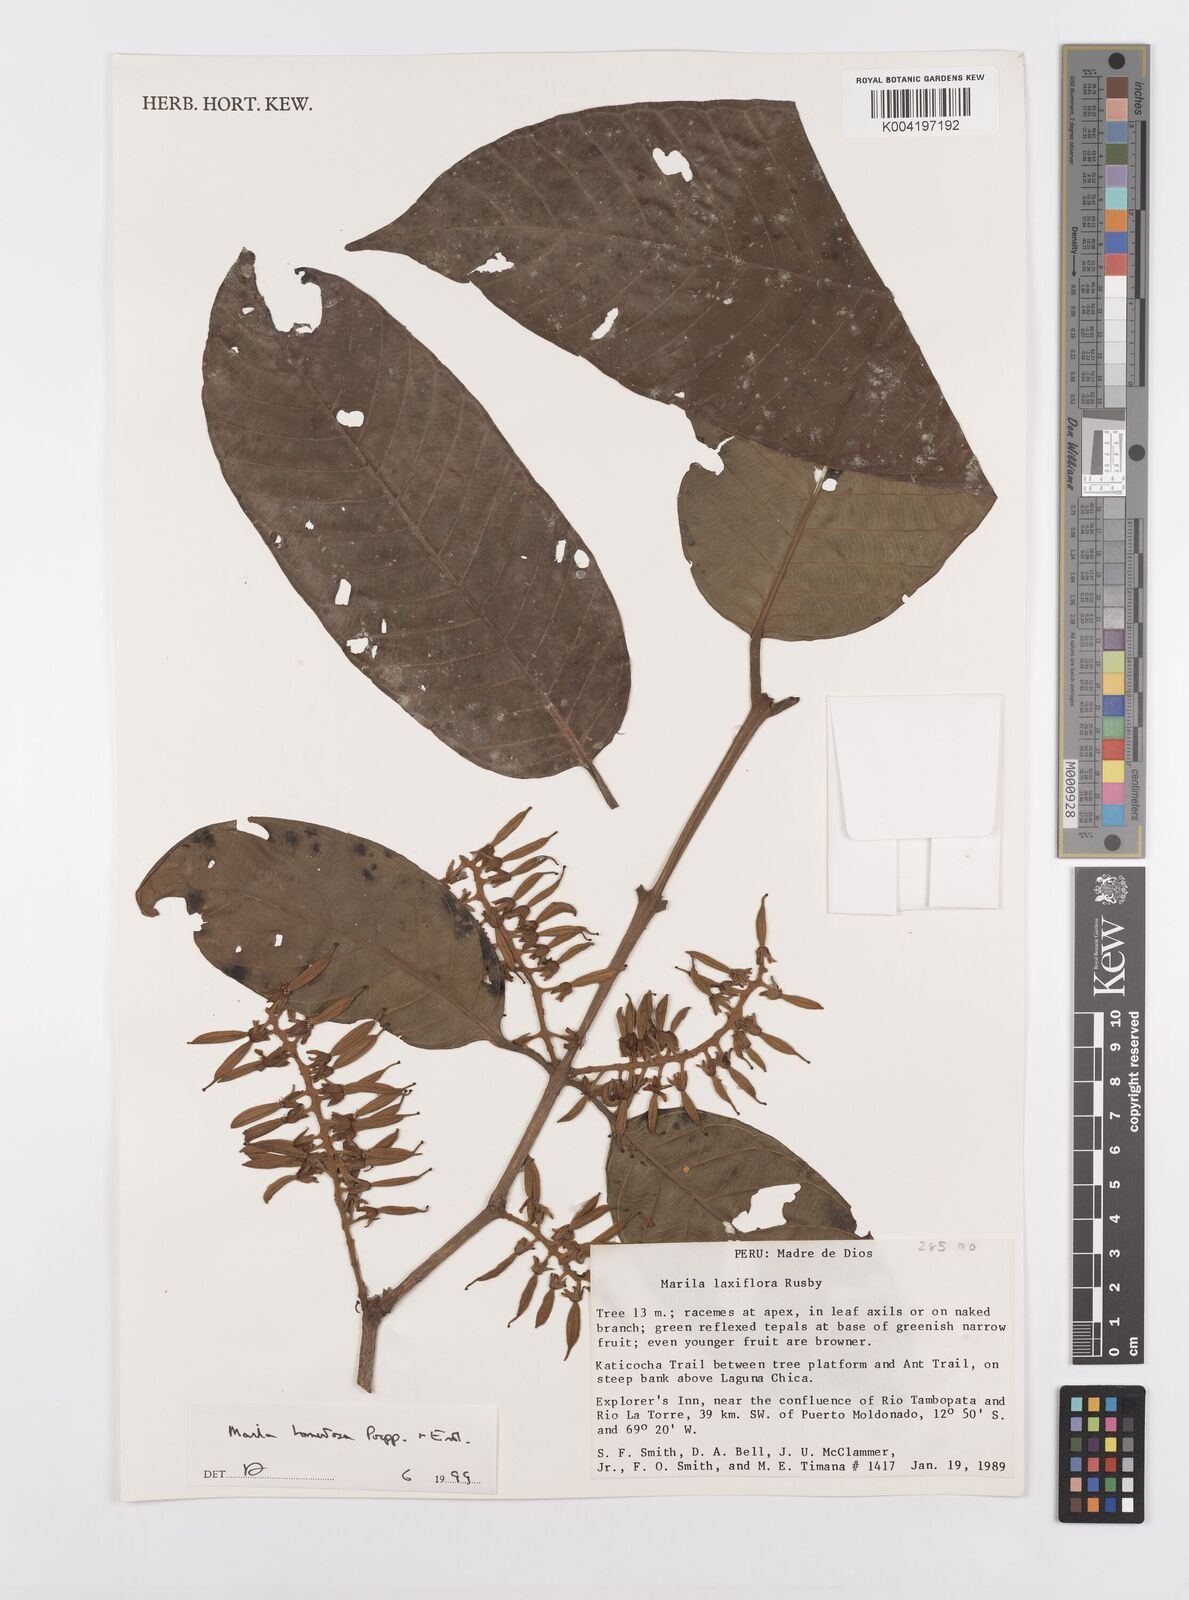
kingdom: Plantae
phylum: Tracheophyta
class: Magnoliopsida
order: Malpighiales
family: Calophyllaceae
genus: Marila
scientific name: Marila tomentosa
